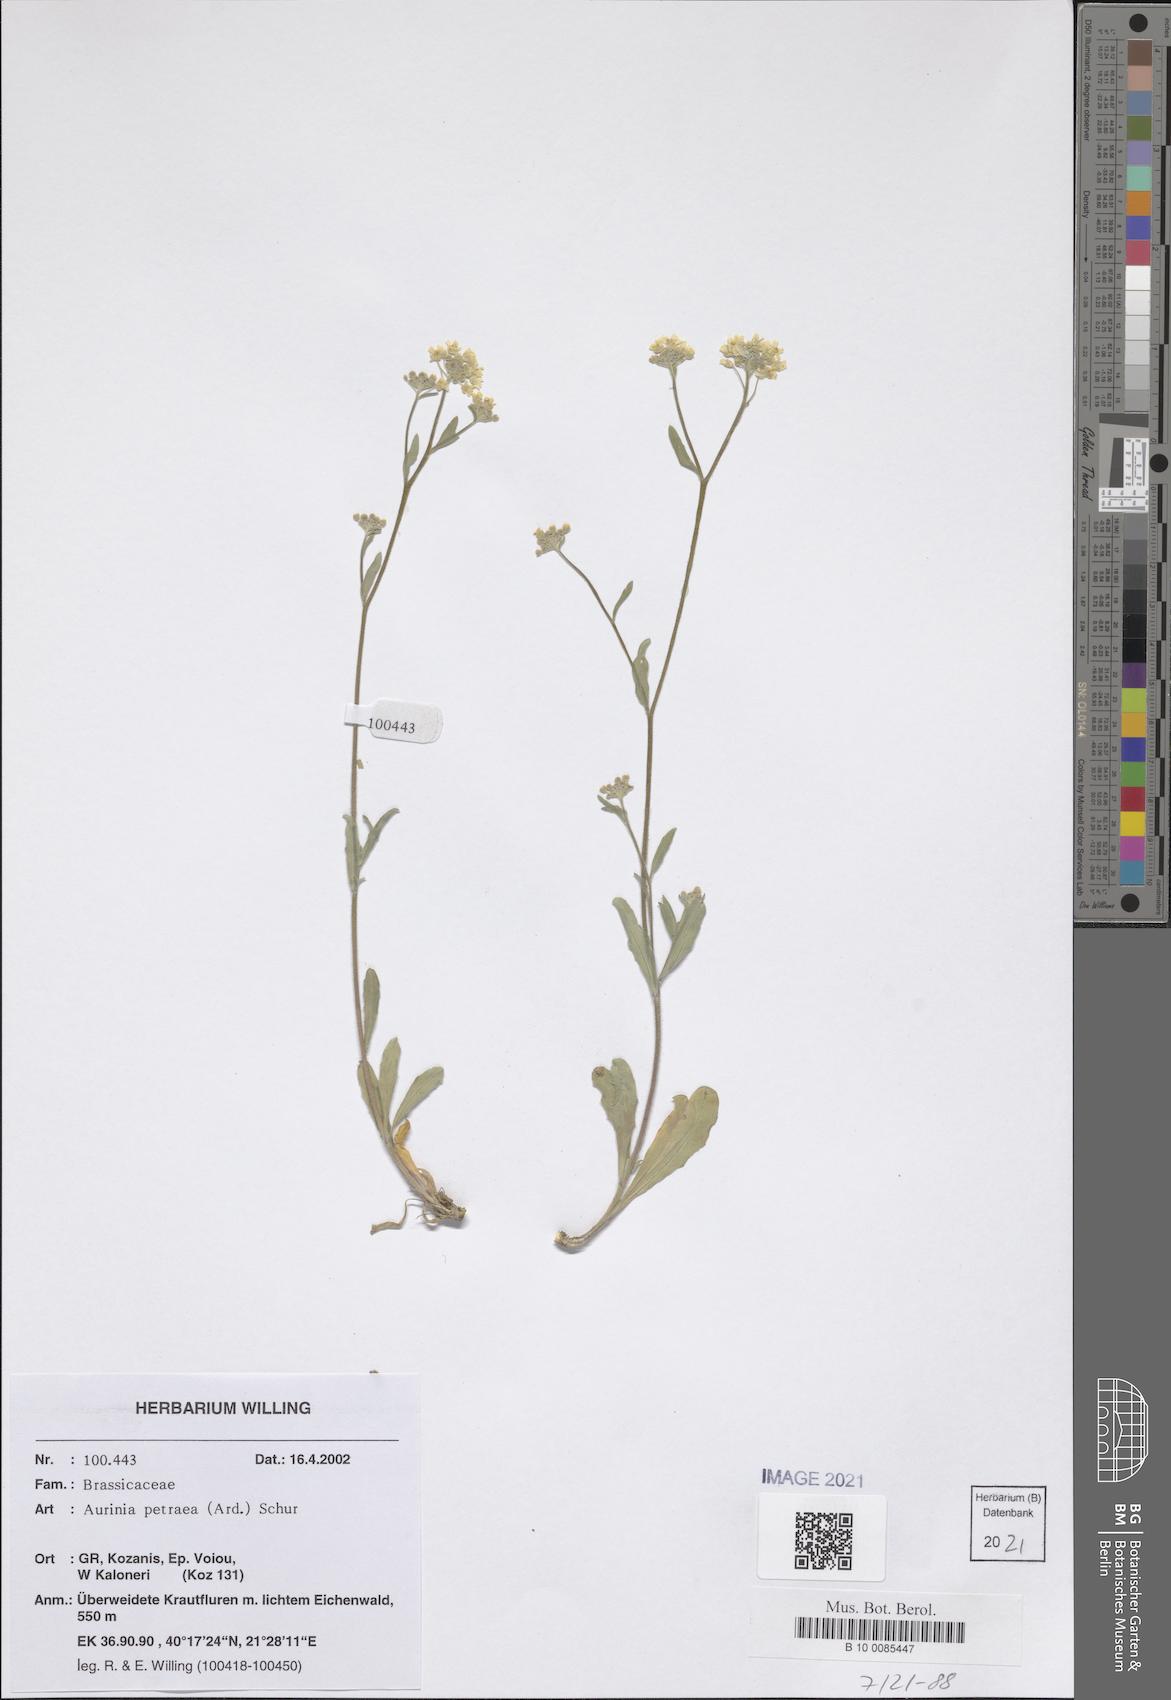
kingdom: Plantae
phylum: Tracheophyta
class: Magnoliopsida
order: Brassicales
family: Brassicaceae
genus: Aurinia
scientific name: Aurinia petraea
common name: Goldentuft
